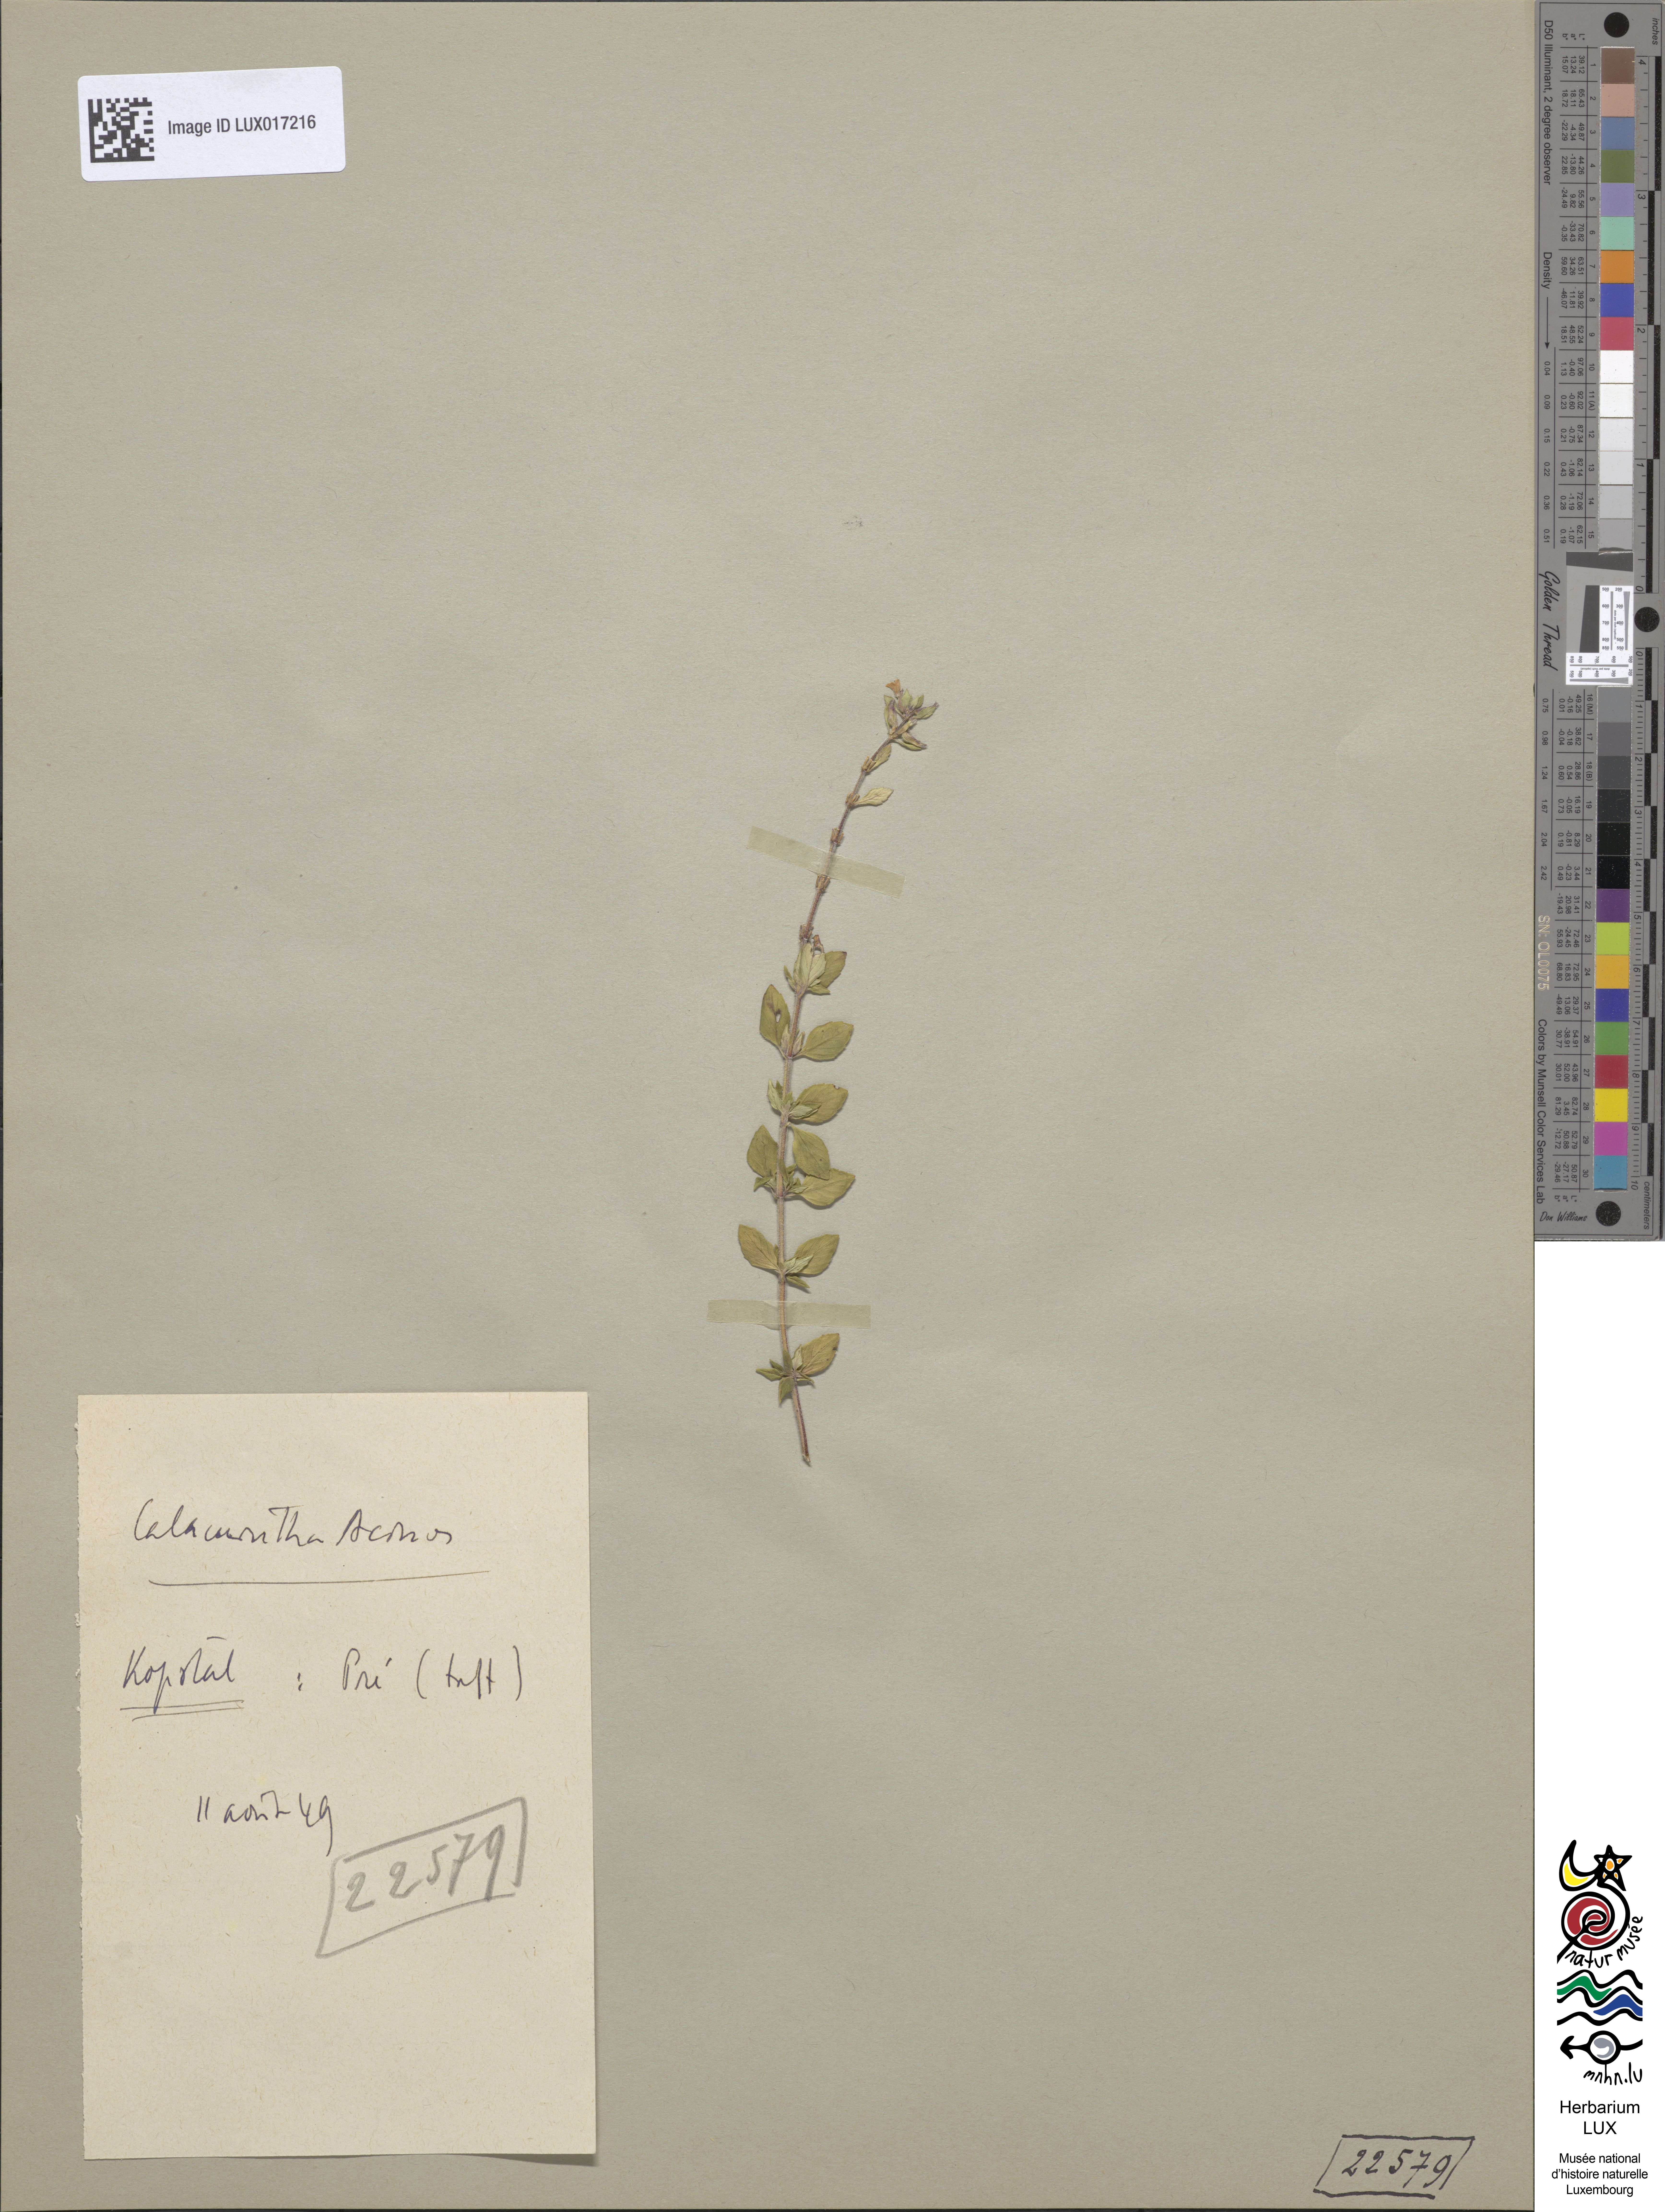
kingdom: Plantae
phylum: Tracheophyta
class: Magnoliopsida
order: Lamiales
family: Lamiaceae
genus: Clinopodium
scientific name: Clinopodium acinos
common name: Basil thyme
